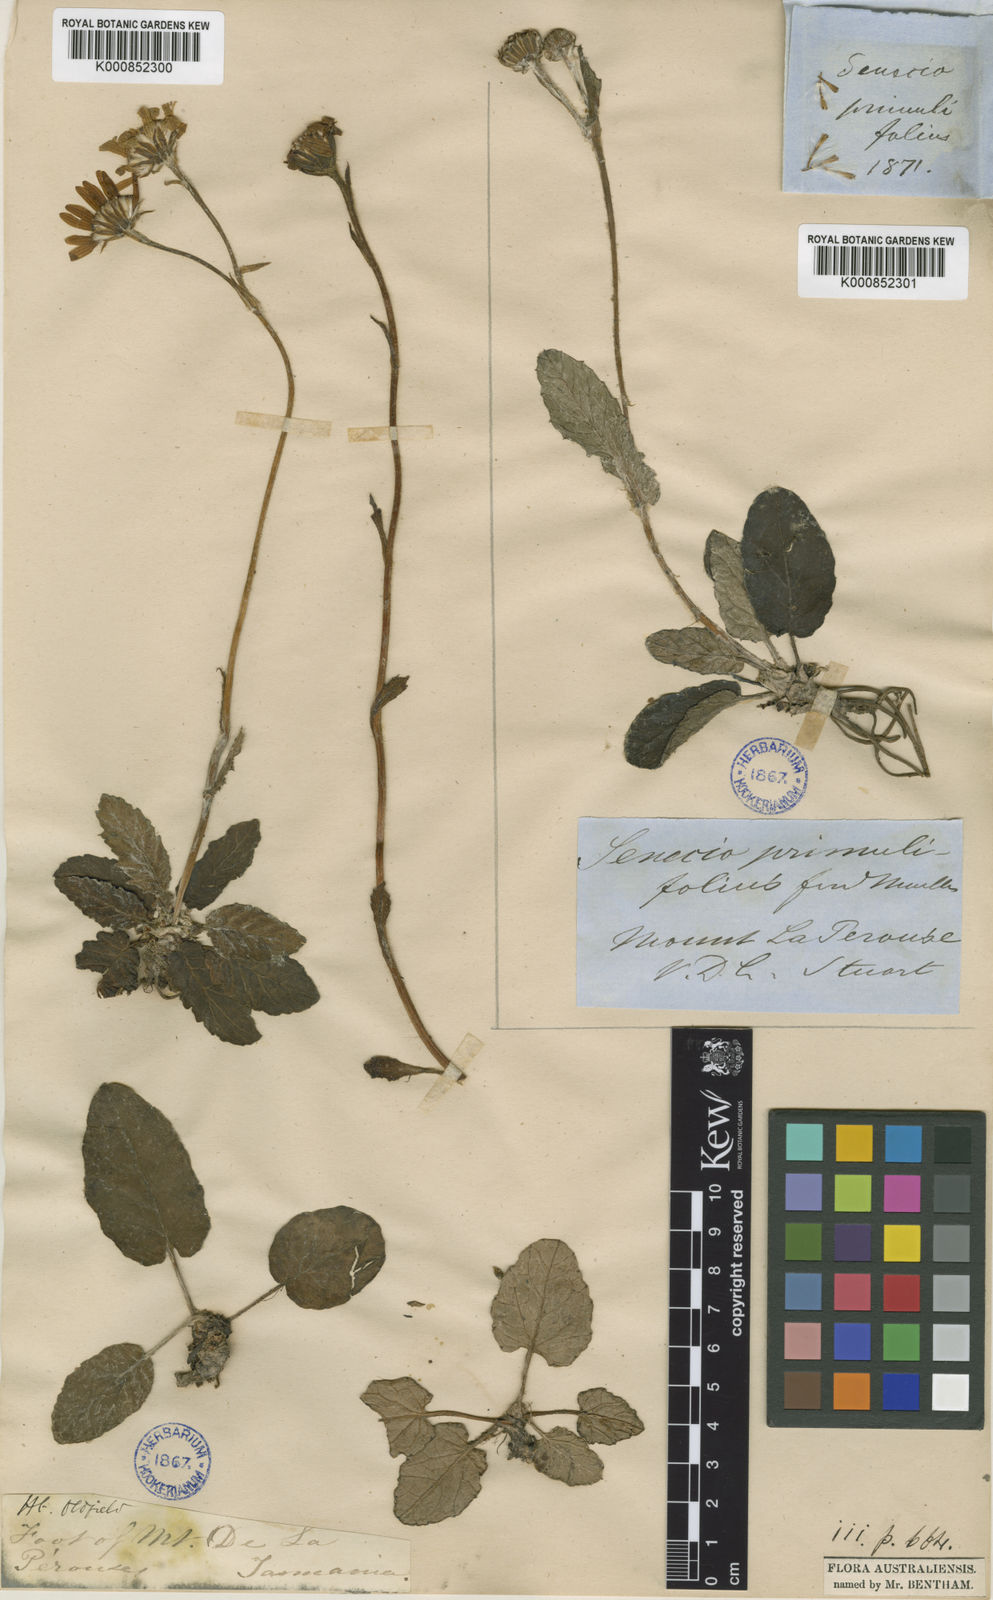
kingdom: Plantae
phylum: Tracheophyta
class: Magnoliopsida
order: Asterales
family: Asteraceae
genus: Scapisenecio
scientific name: Scapisenecio primulifolius
